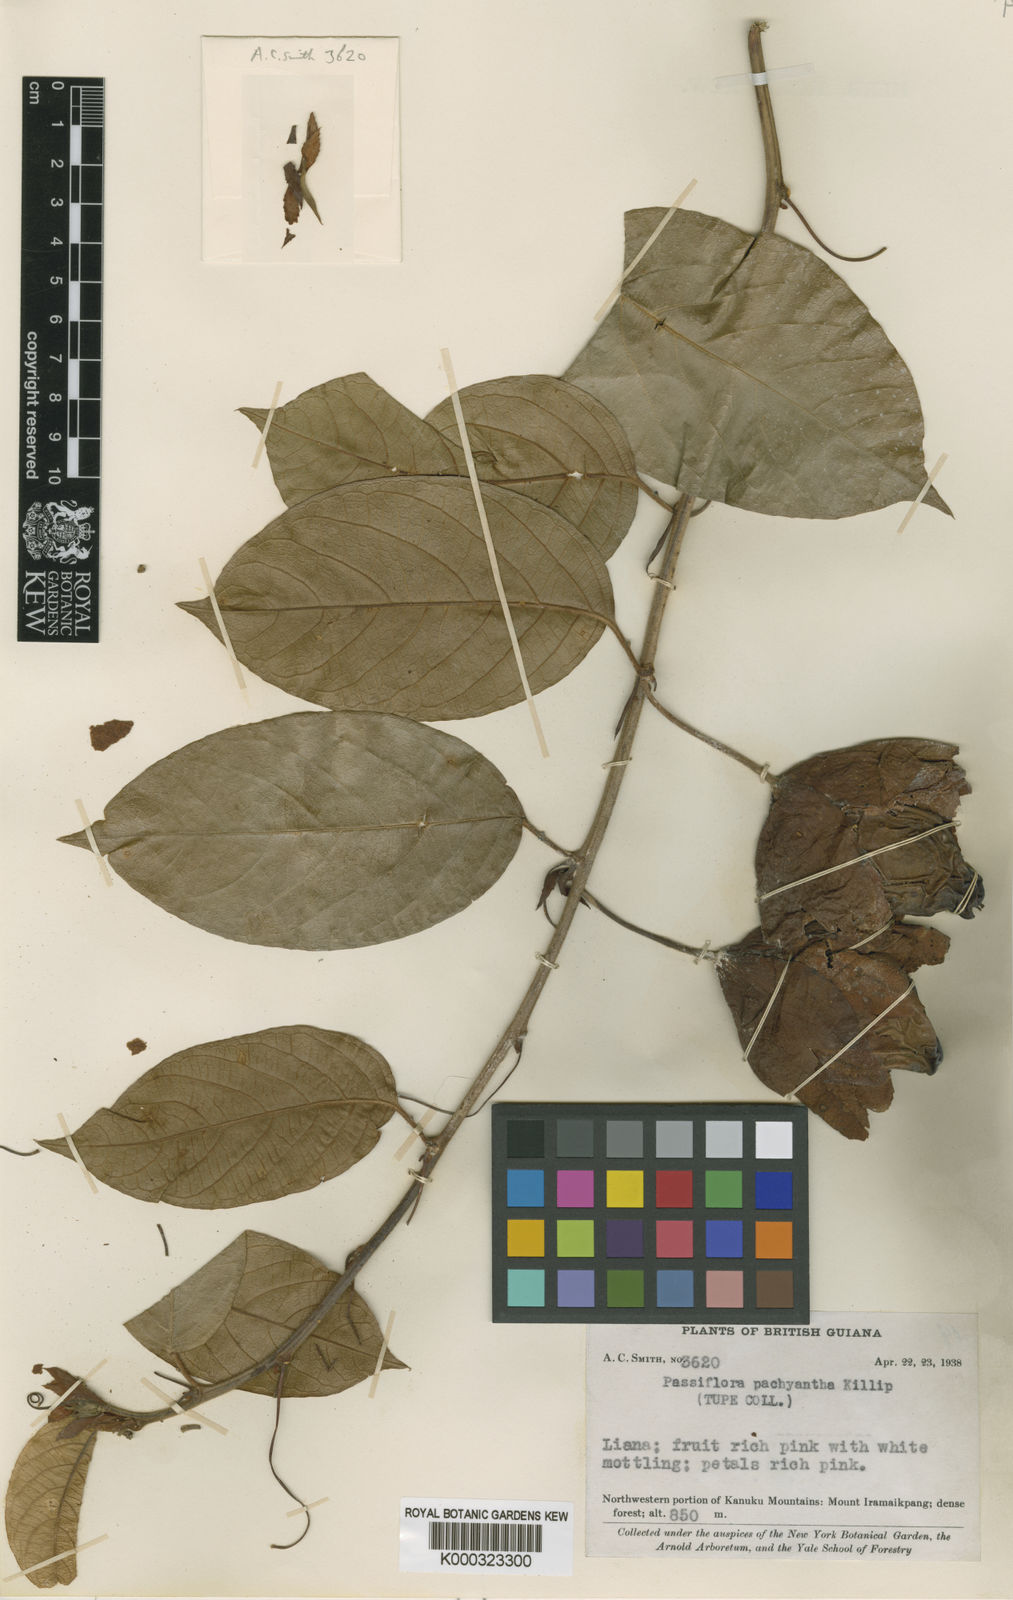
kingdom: Plantae
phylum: Tracheophyta
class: Magnoliopsida
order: Malpighiales
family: Passifloraceae
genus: Passiflora
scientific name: Passiflora pachyantha
